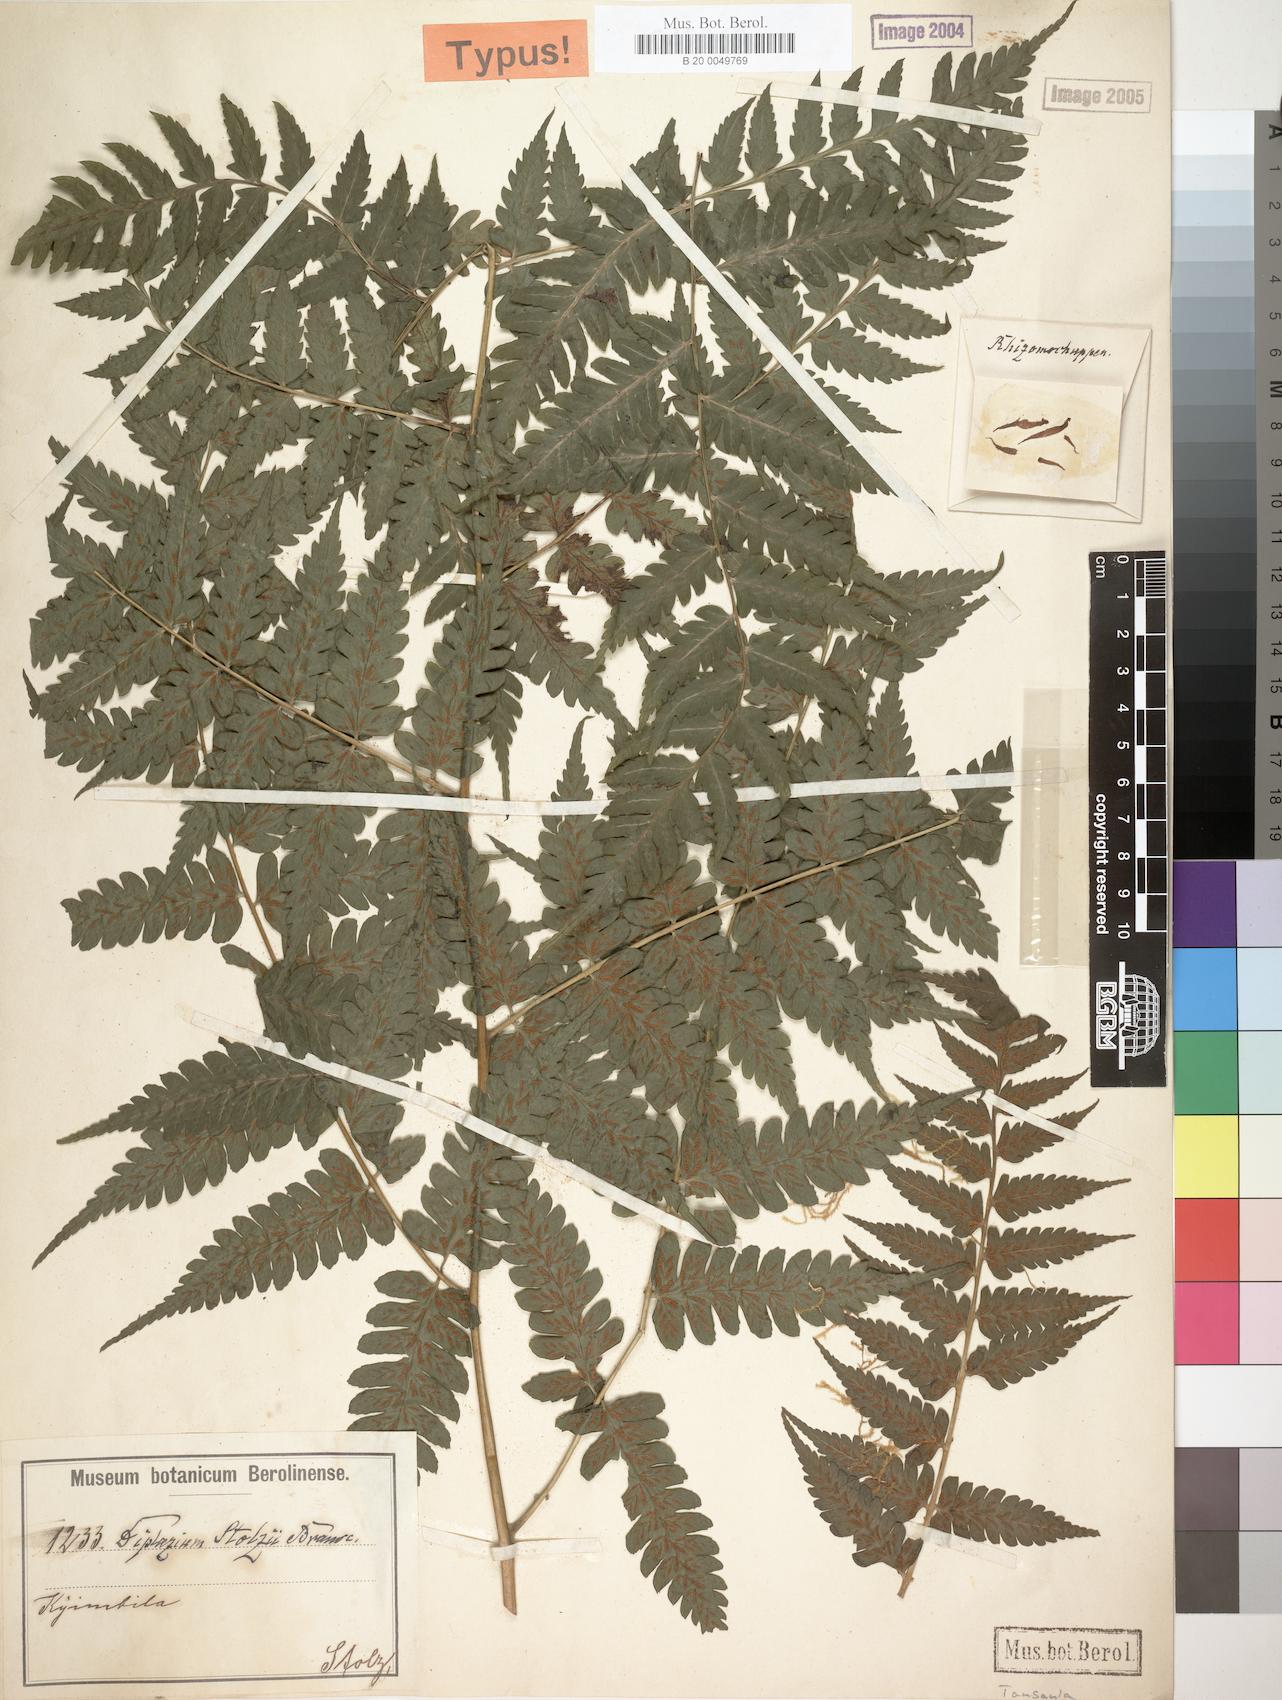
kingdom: Plantae
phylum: Tracheophyta
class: Polypodiopsida
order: Polypodiales
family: Athyriaceae
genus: Diplazium
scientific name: Diplazium nemorale
